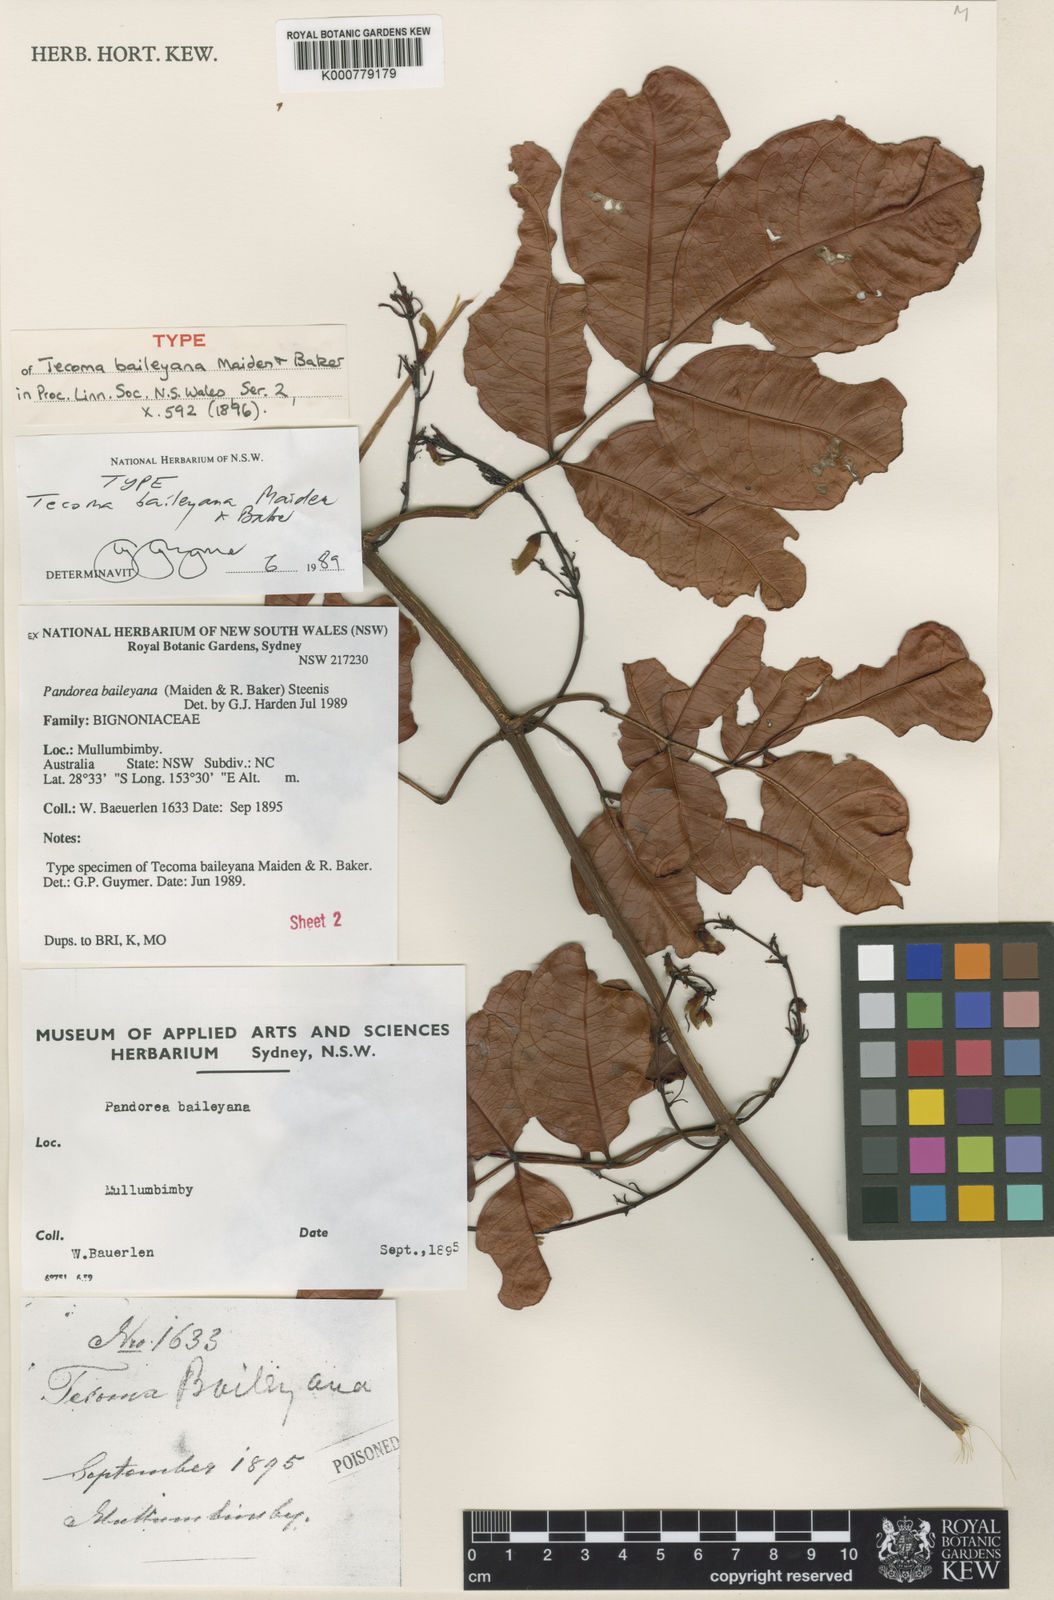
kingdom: Plantae
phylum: Tracheophyta
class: Magnoliopsida
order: Lamiales
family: Bignoniaceae
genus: Pandorea
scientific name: Pandorea baileyana
